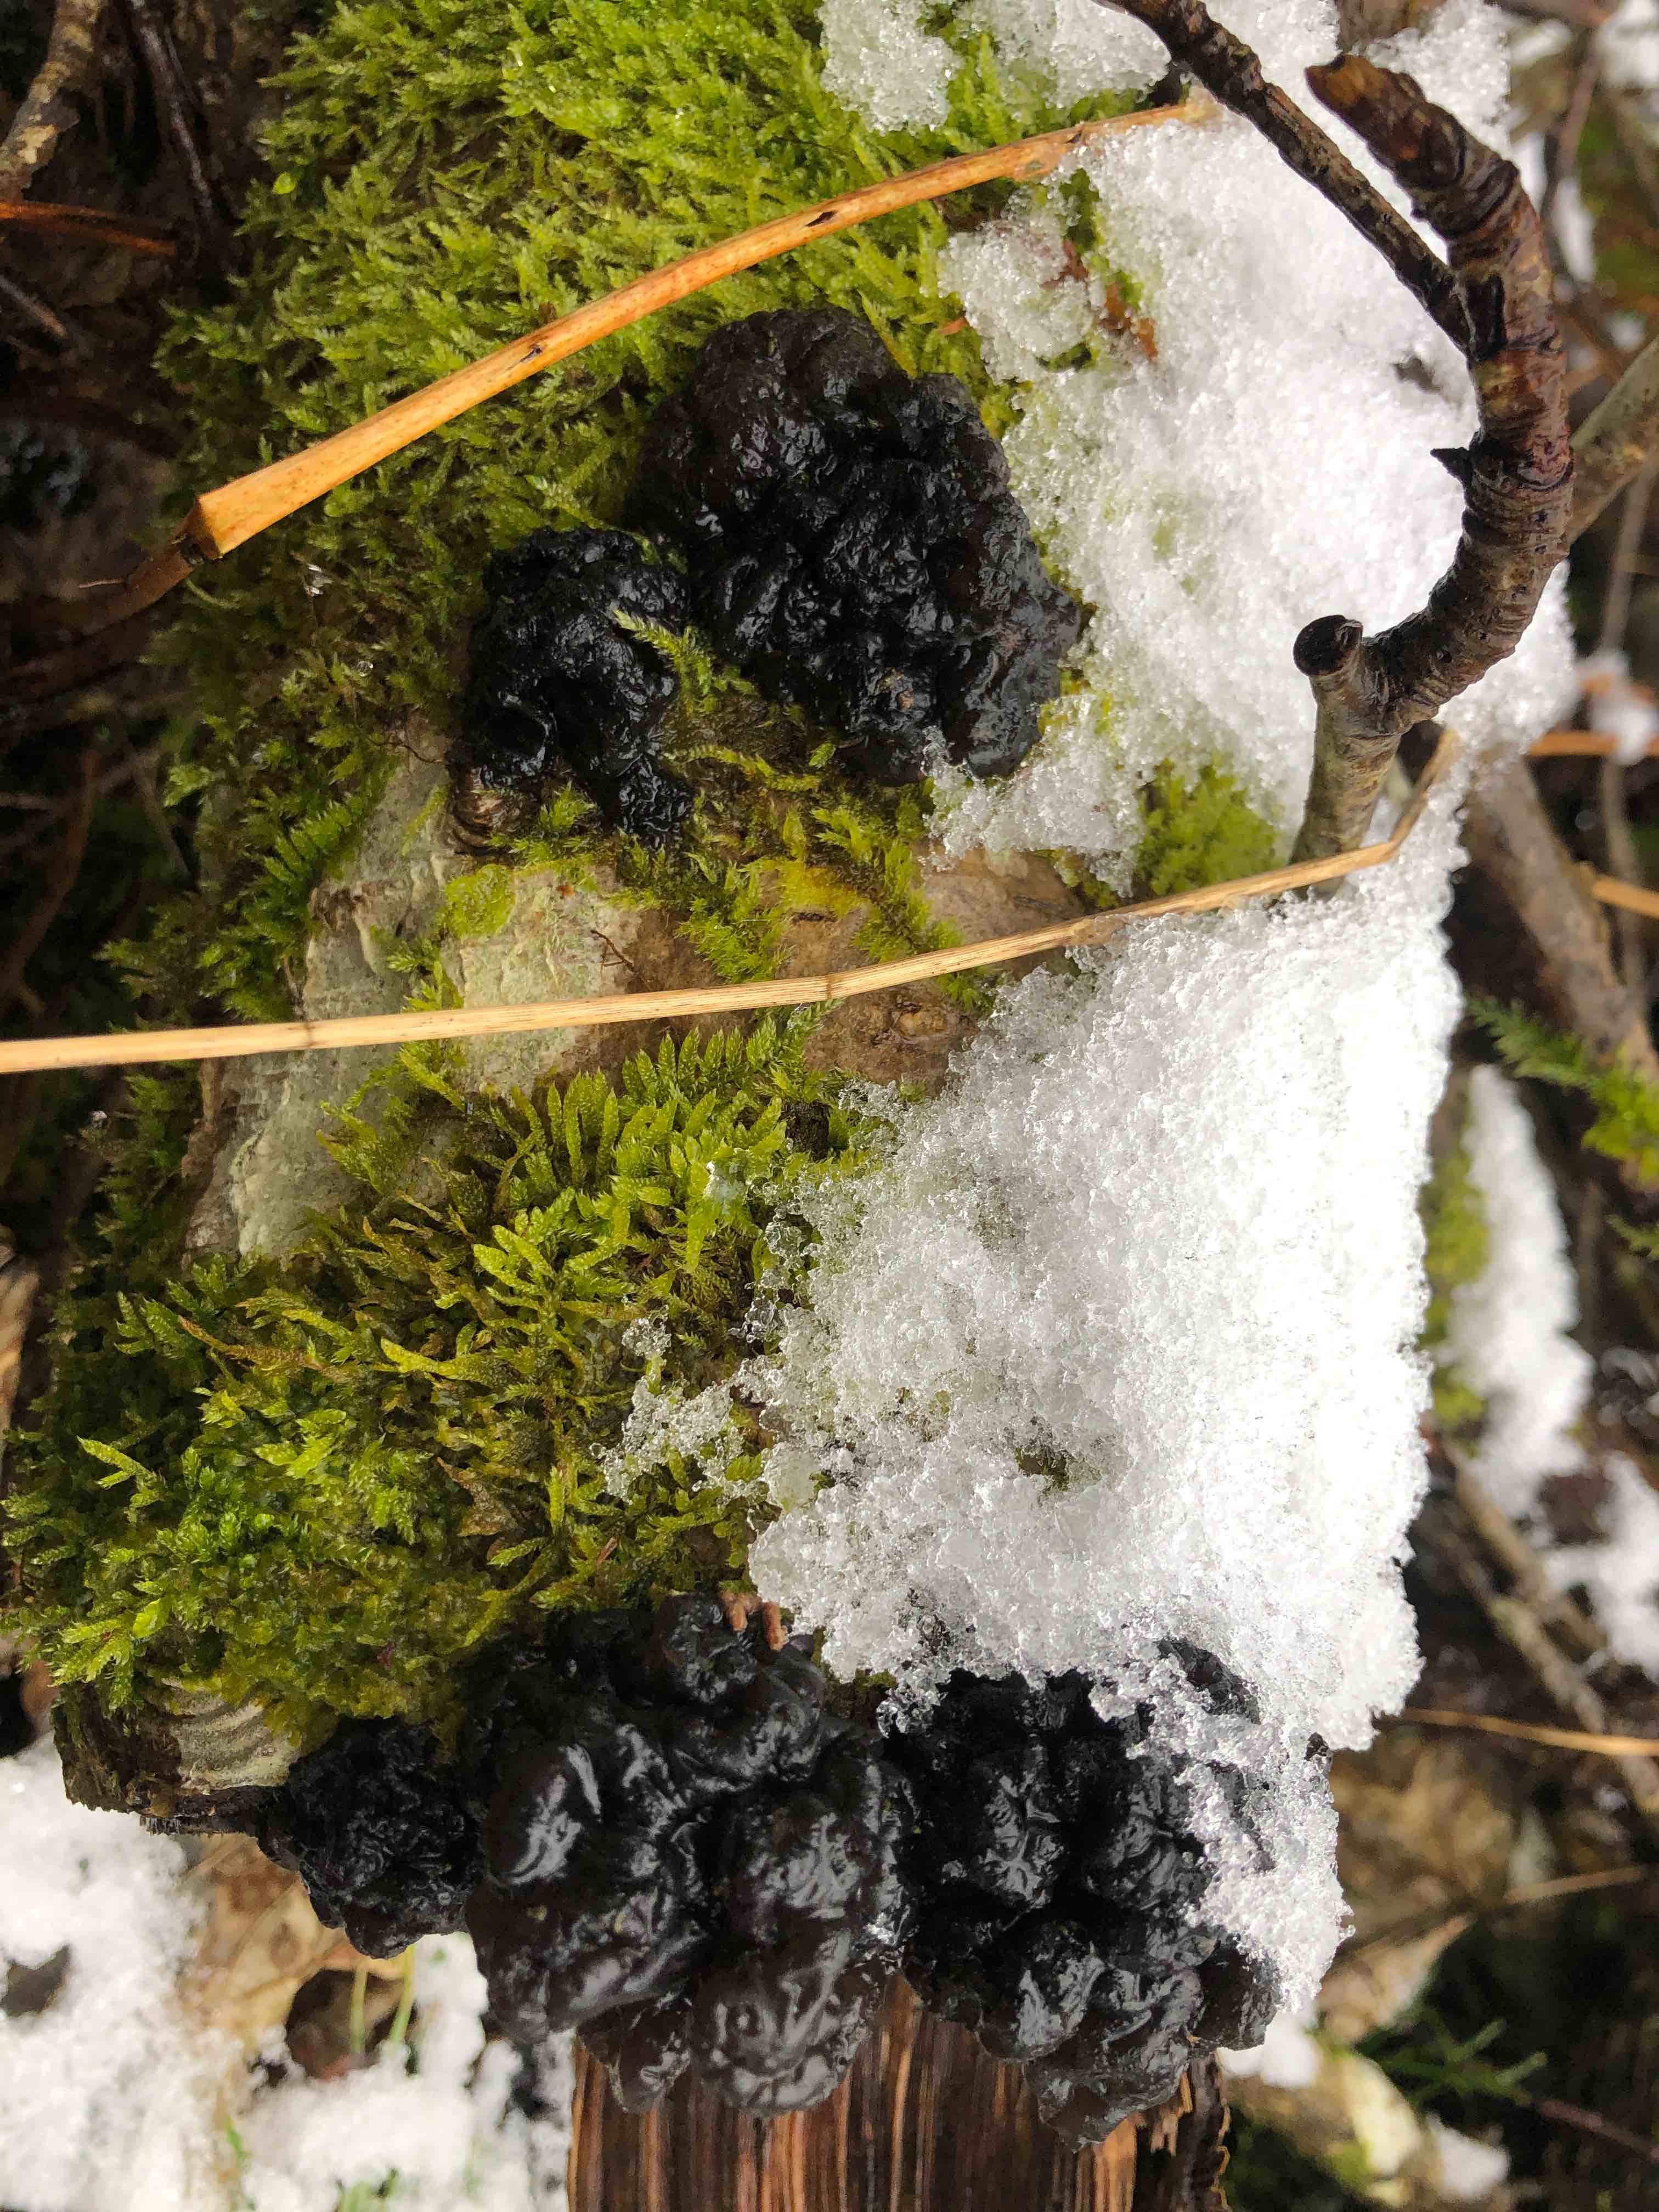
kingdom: Fungi
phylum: Basidiomycota
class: Agaricomycetes
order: Auriculariales
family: Auriculariaceae
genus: Exidia
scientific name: Exidia nigricans
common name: almindelig bævretop
